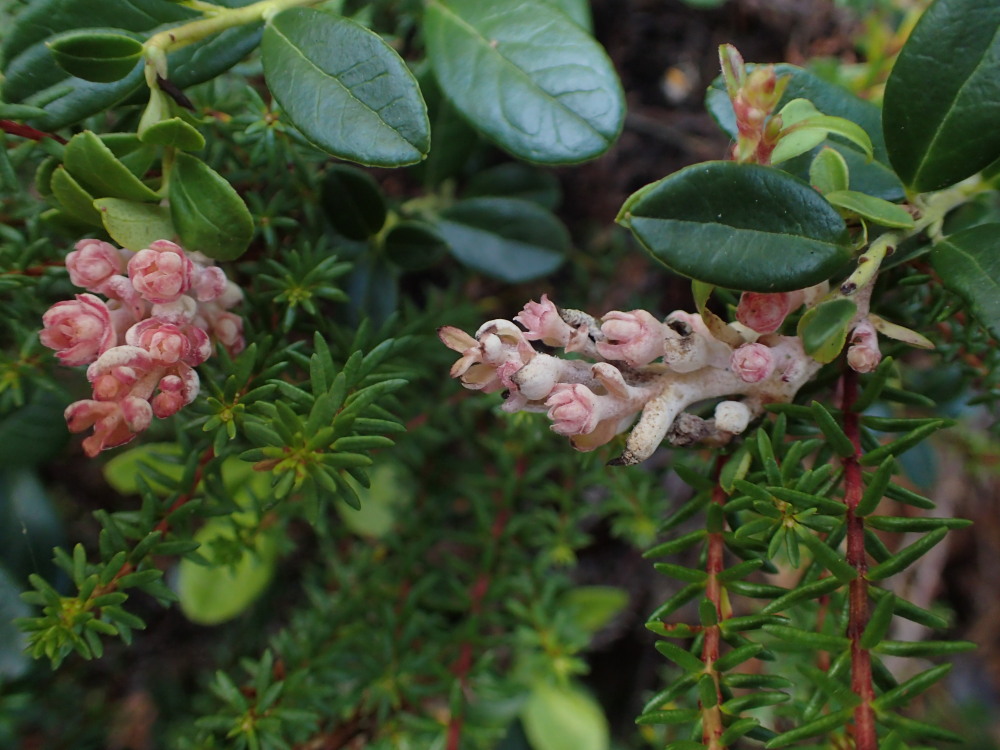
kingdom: Fungi
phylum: Basidiomycota
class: Exobasidiomycetes
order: Exobasidiales
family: Exobasidiaceae
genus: Exobasidium
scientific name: Exobasidium vaccinii
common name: tyttebærblad-bøllesvamp
